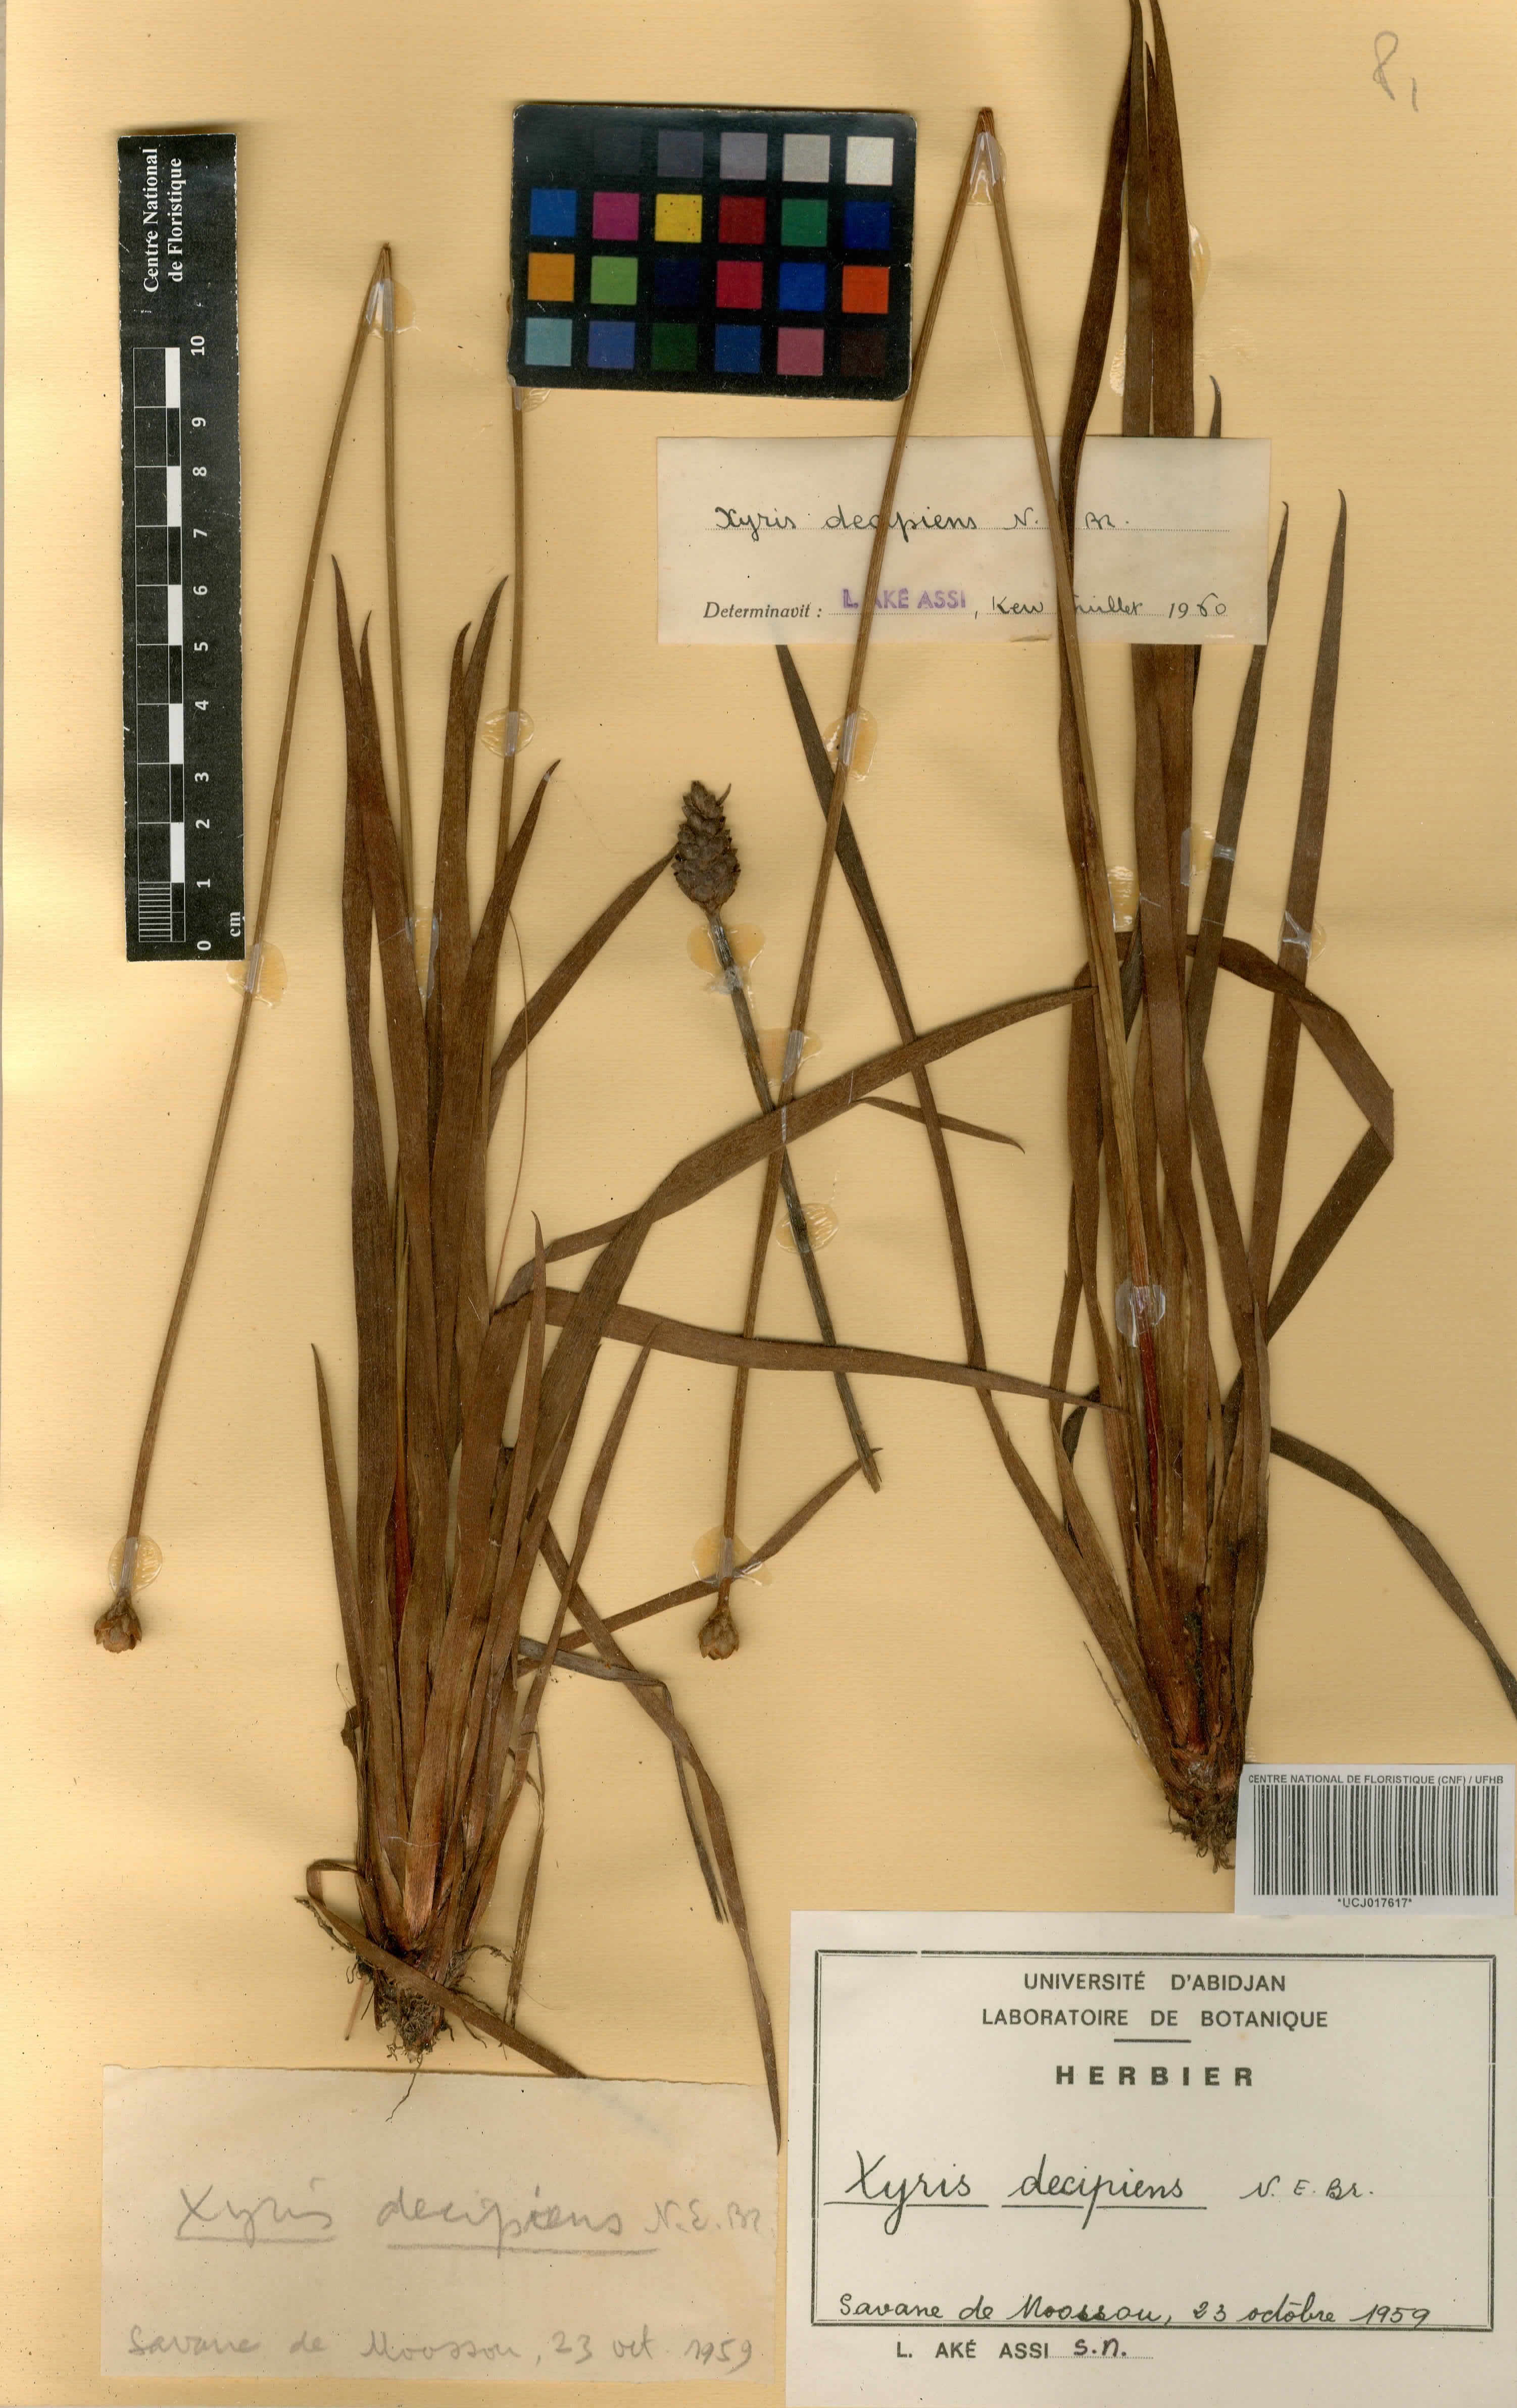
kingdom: Plantae
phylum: Tracheophyta
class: Liliopsida
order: Poales
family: Xyridaceae
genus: Xyris
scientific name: Xyris decipiens
